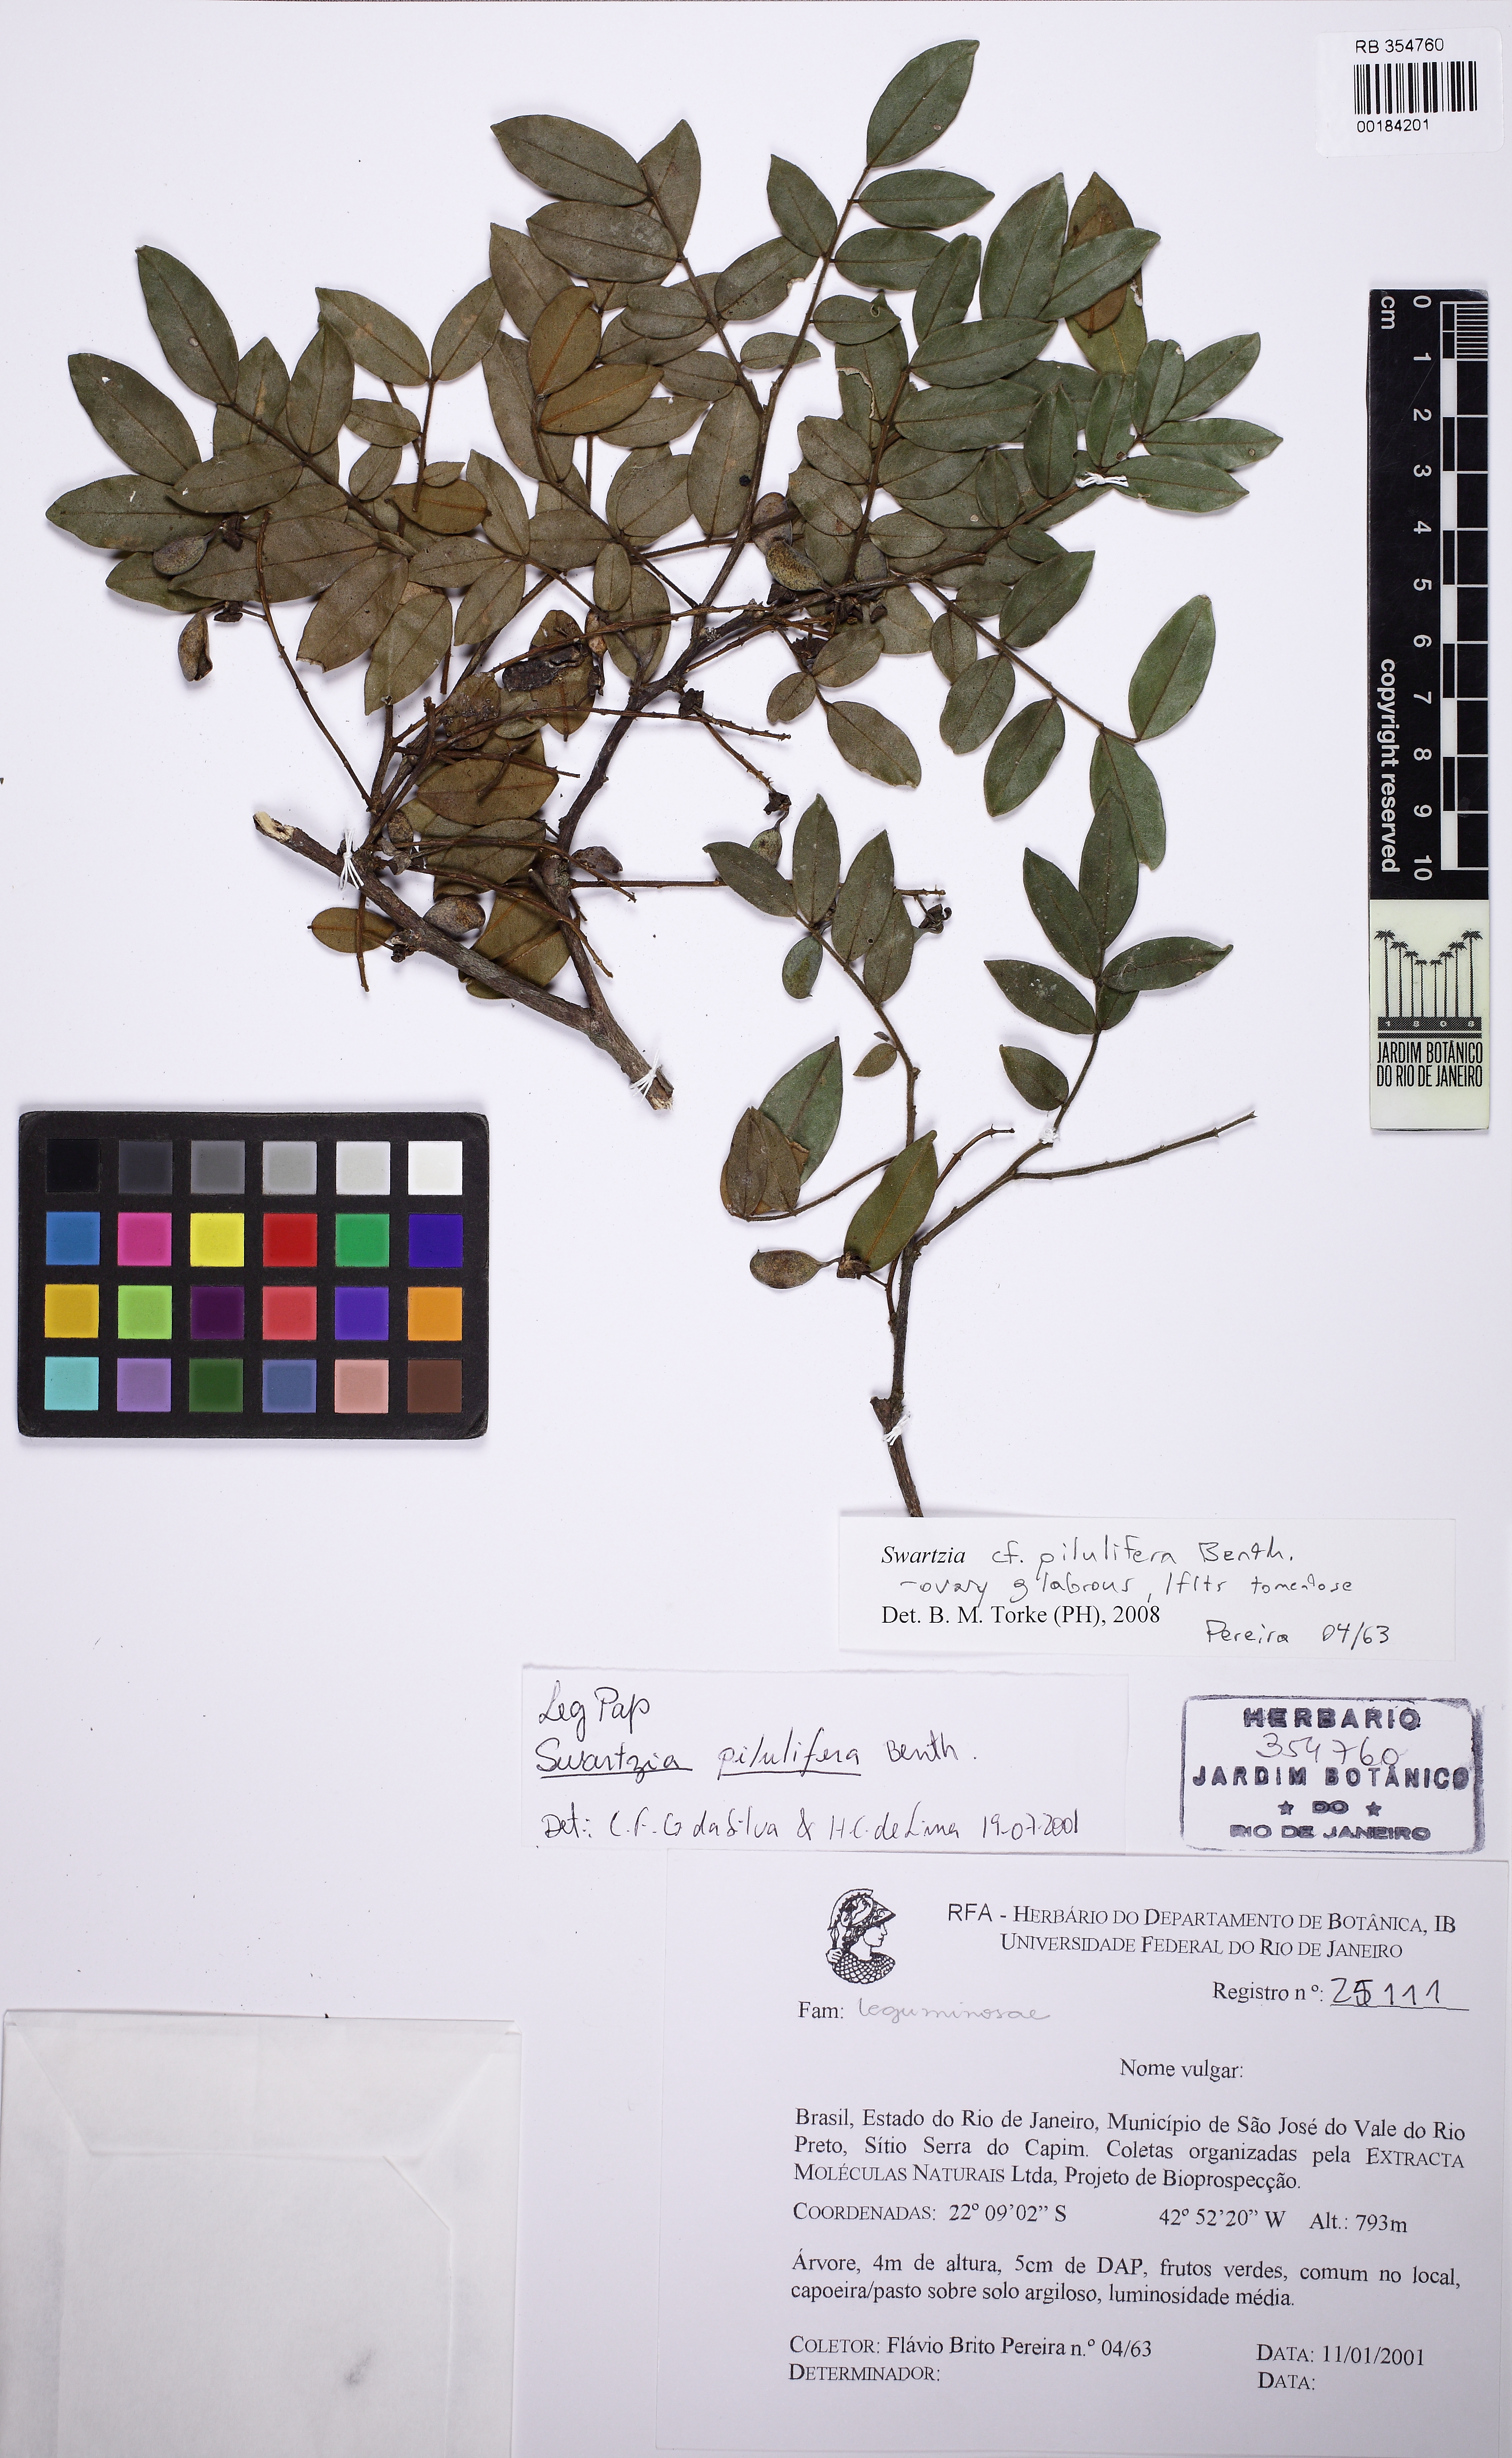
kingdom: Plantae
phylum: Tracheophyta
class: Magnoliopsida
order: Fabales
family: Fabaceae
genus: Swartzia
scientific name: Swartzia pilulifera
